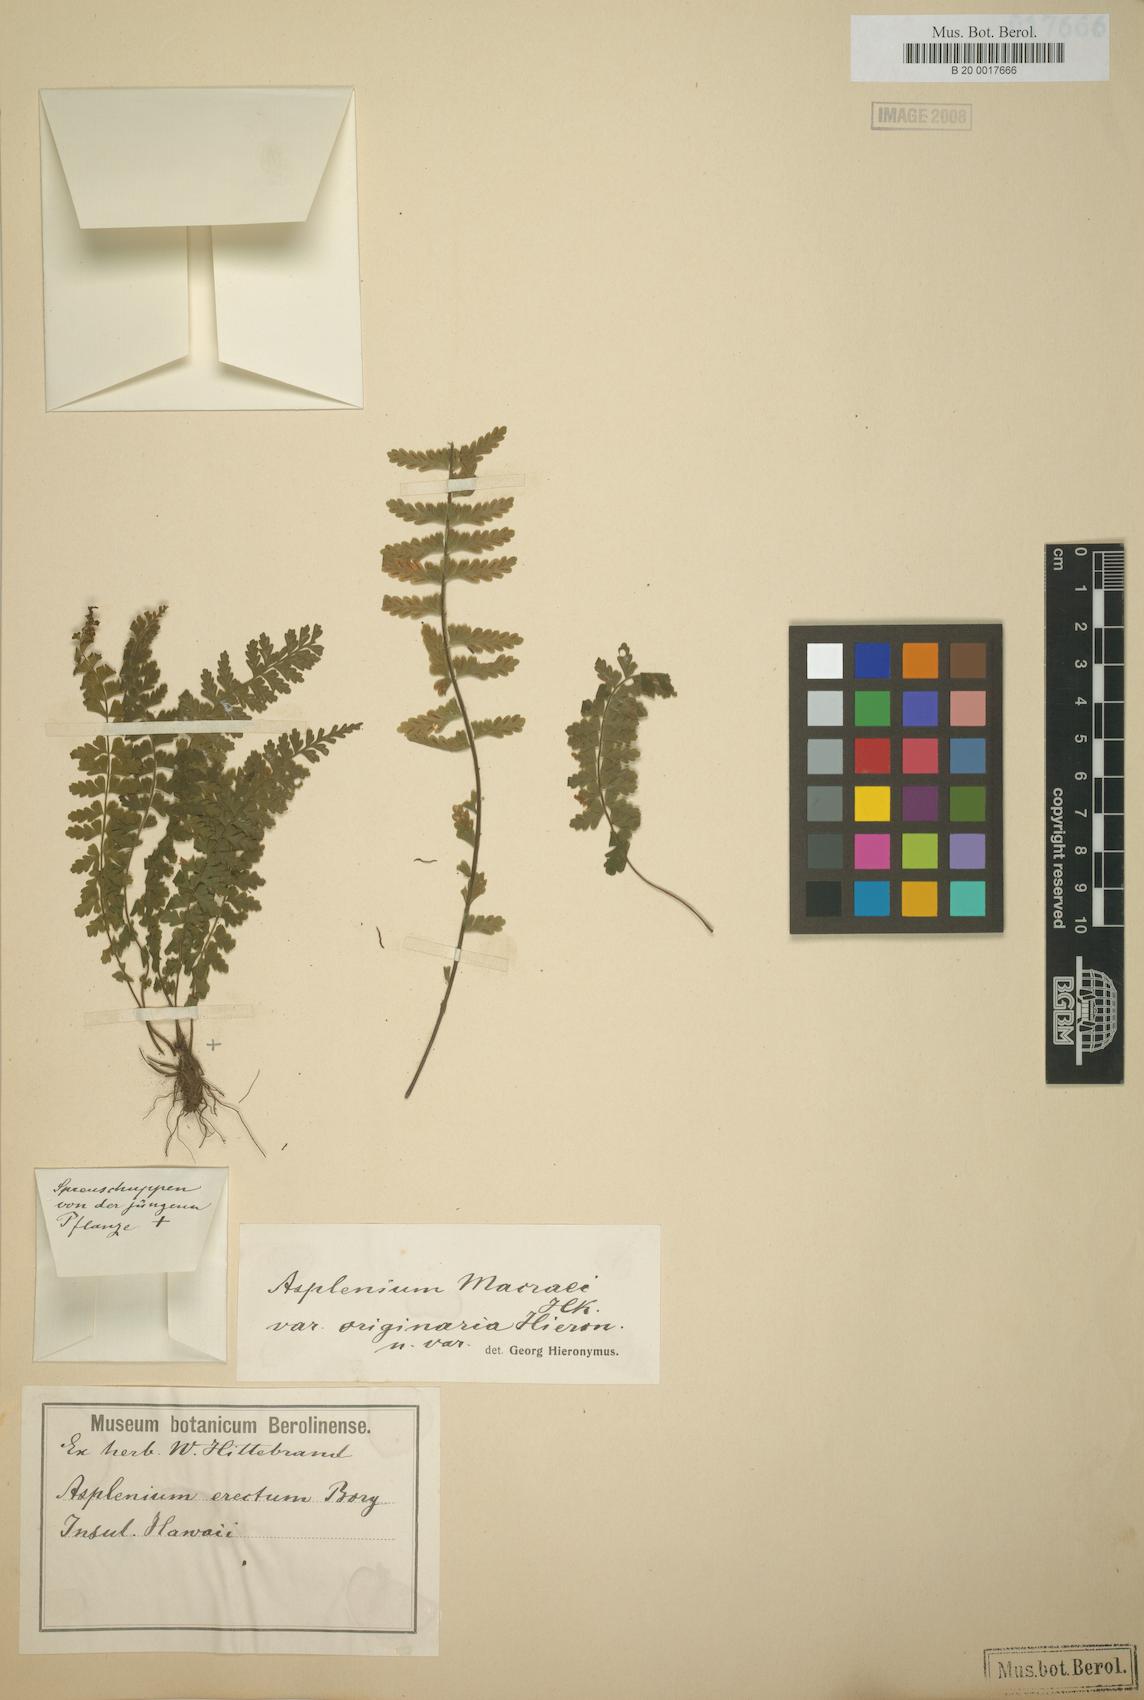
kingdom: Plantae
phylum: Tracheophyta
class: Polypodiopsida
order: Polypodiales
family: Aspleniaceae
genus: Asplenium
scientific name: Asplenium macraei
